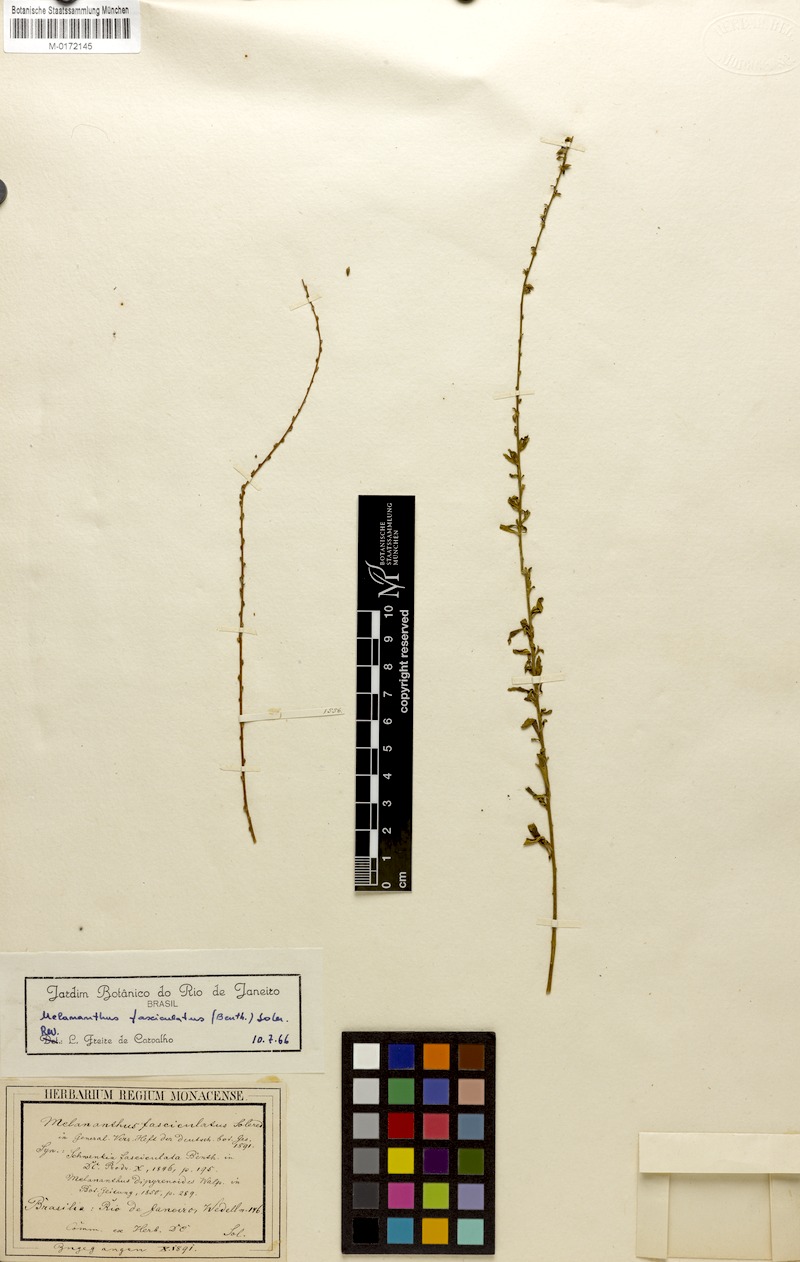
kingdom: Plantae
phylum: Tracheophyta
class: Magnoliopsida
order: Solanales
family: Solanaceae
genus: Melananthus
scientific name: Melananthus multiflorus
